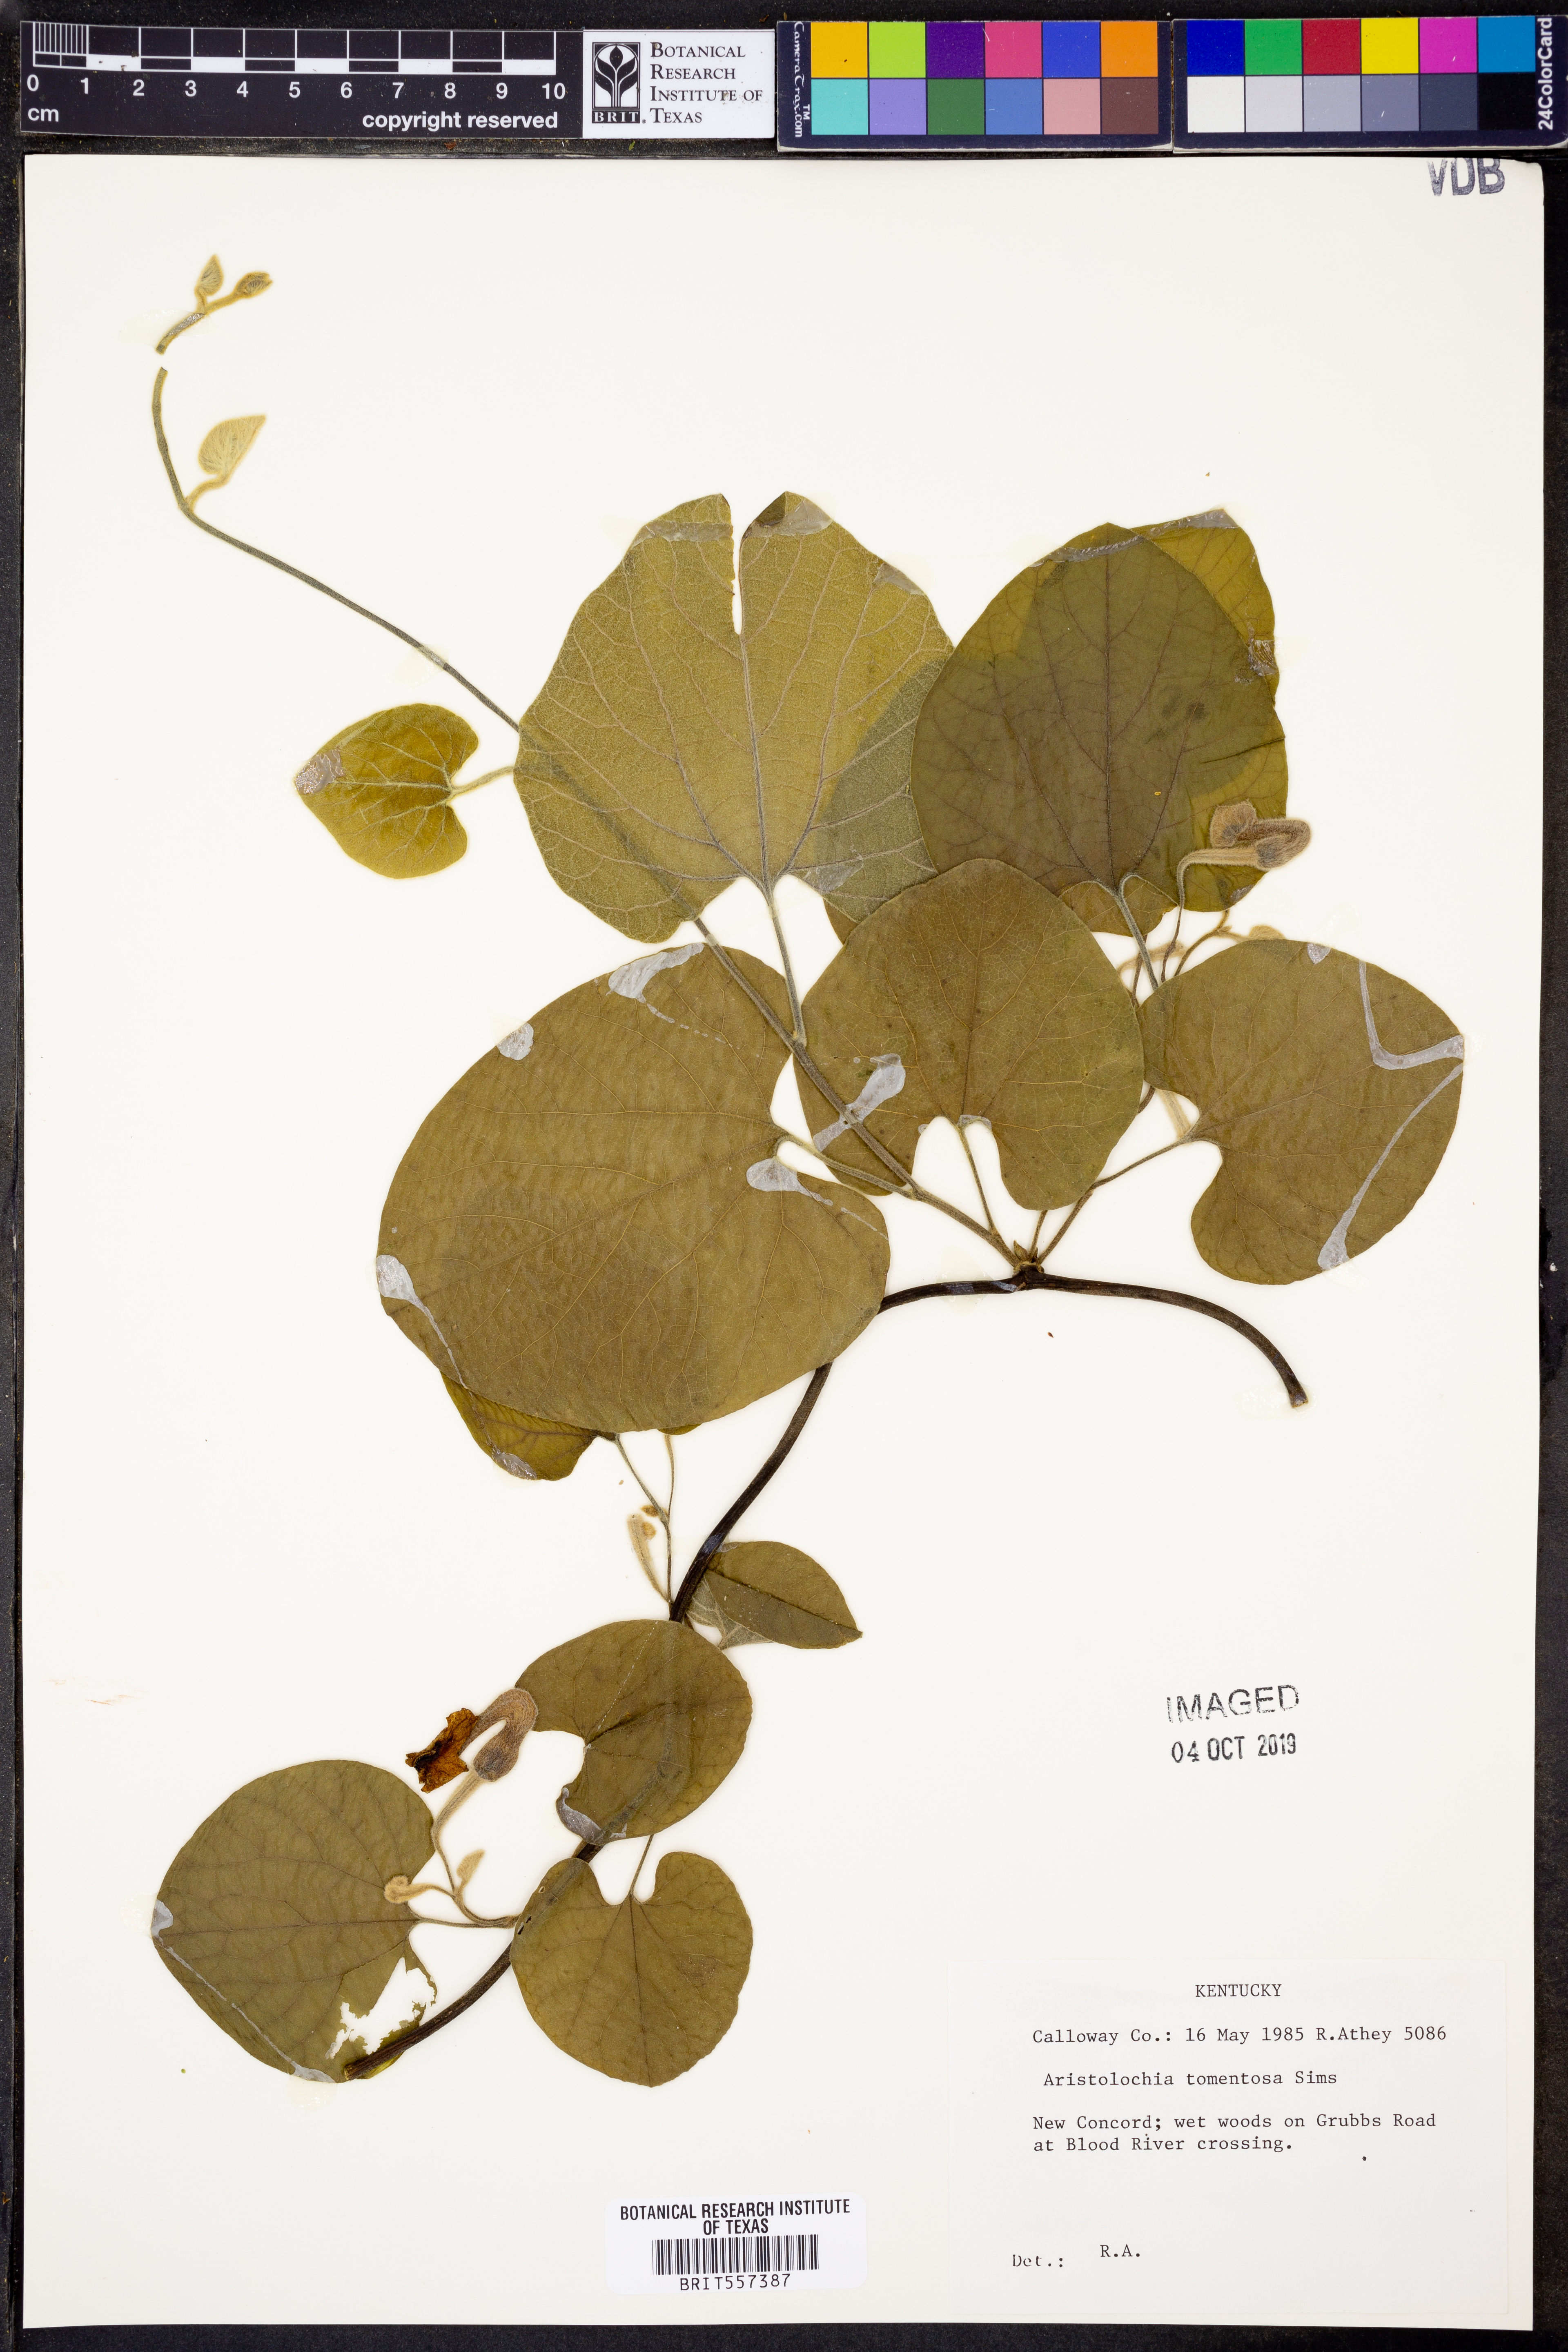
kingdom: Plantae
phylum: Tracheophyta
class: Magnoliopsida
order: Piperales
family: Aristolochiaceae
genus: Isotrema
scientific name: Isotrema tomentosum
